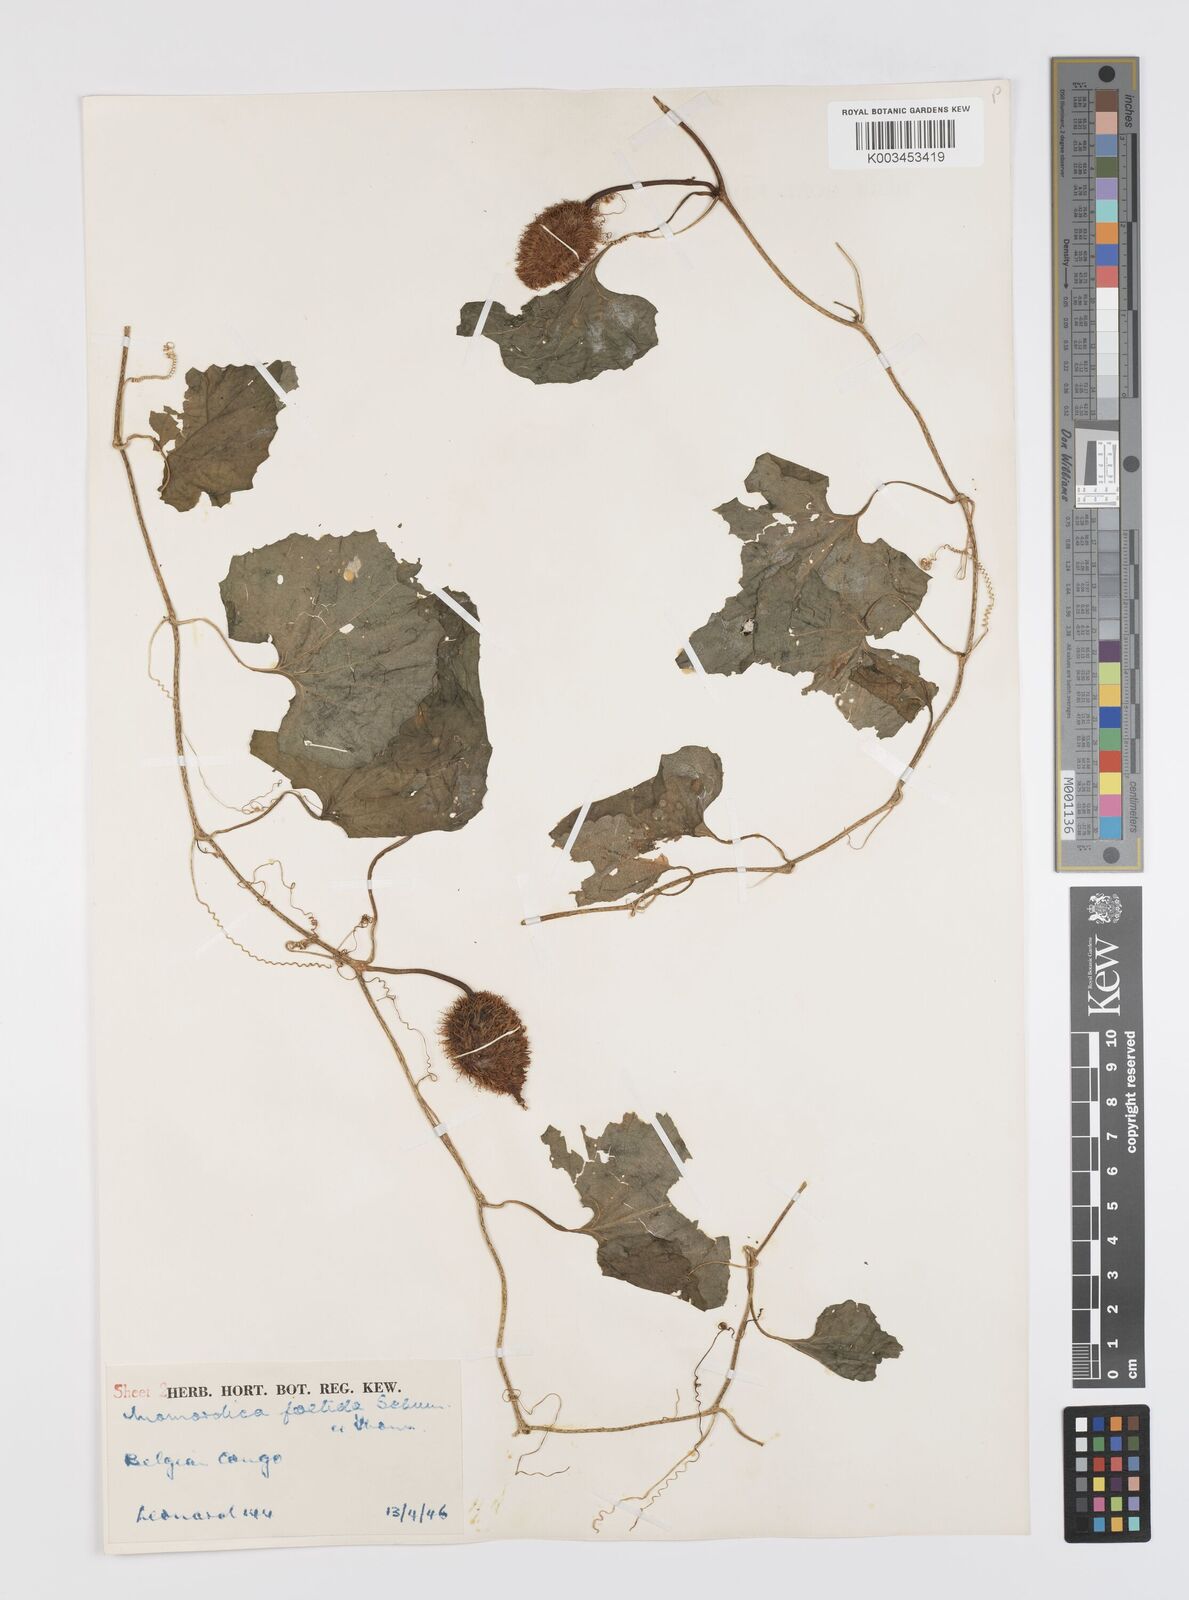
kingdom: Plantae
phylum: Tracheophyta
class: Magnoliopsida
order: Cucurbitales
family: Cucurbitaceae
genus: Momordica
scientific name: Momordica foetida
